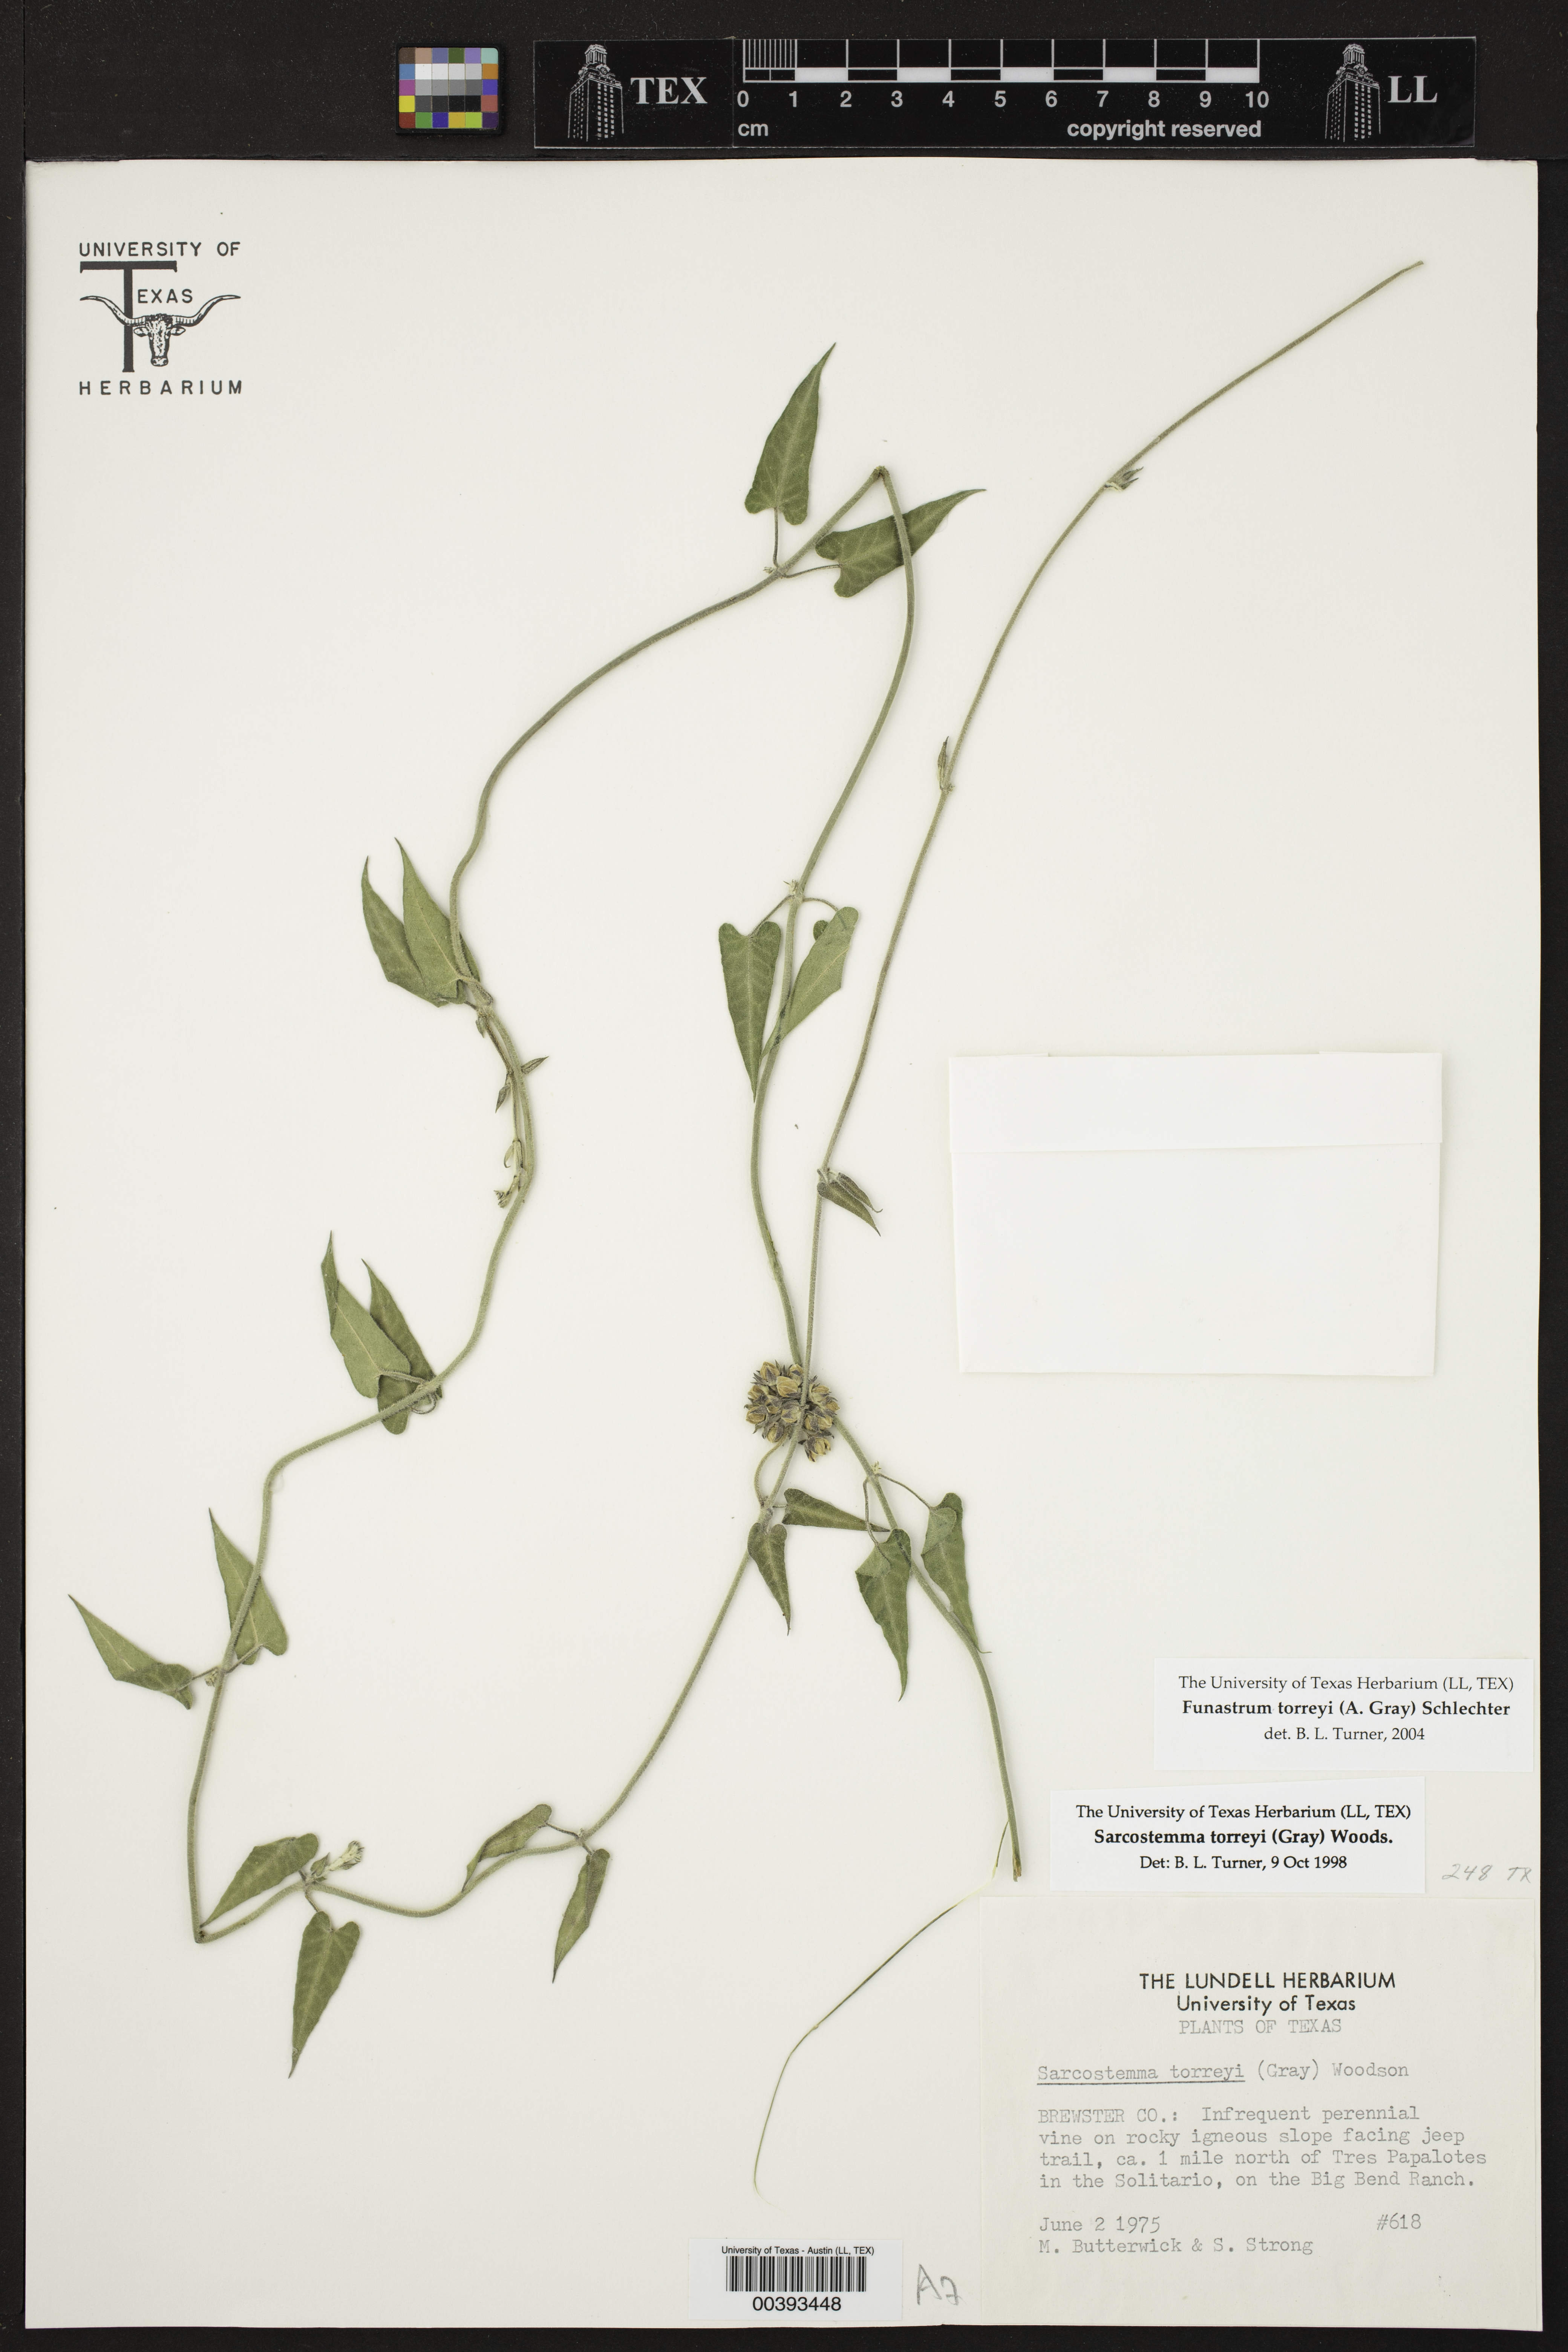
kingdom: Plantae
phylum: Tracheophyta
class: Magnoliopsida
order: Gentianales
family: Apocynaceae
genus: Funastrum
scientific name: Funastrum torreyi
